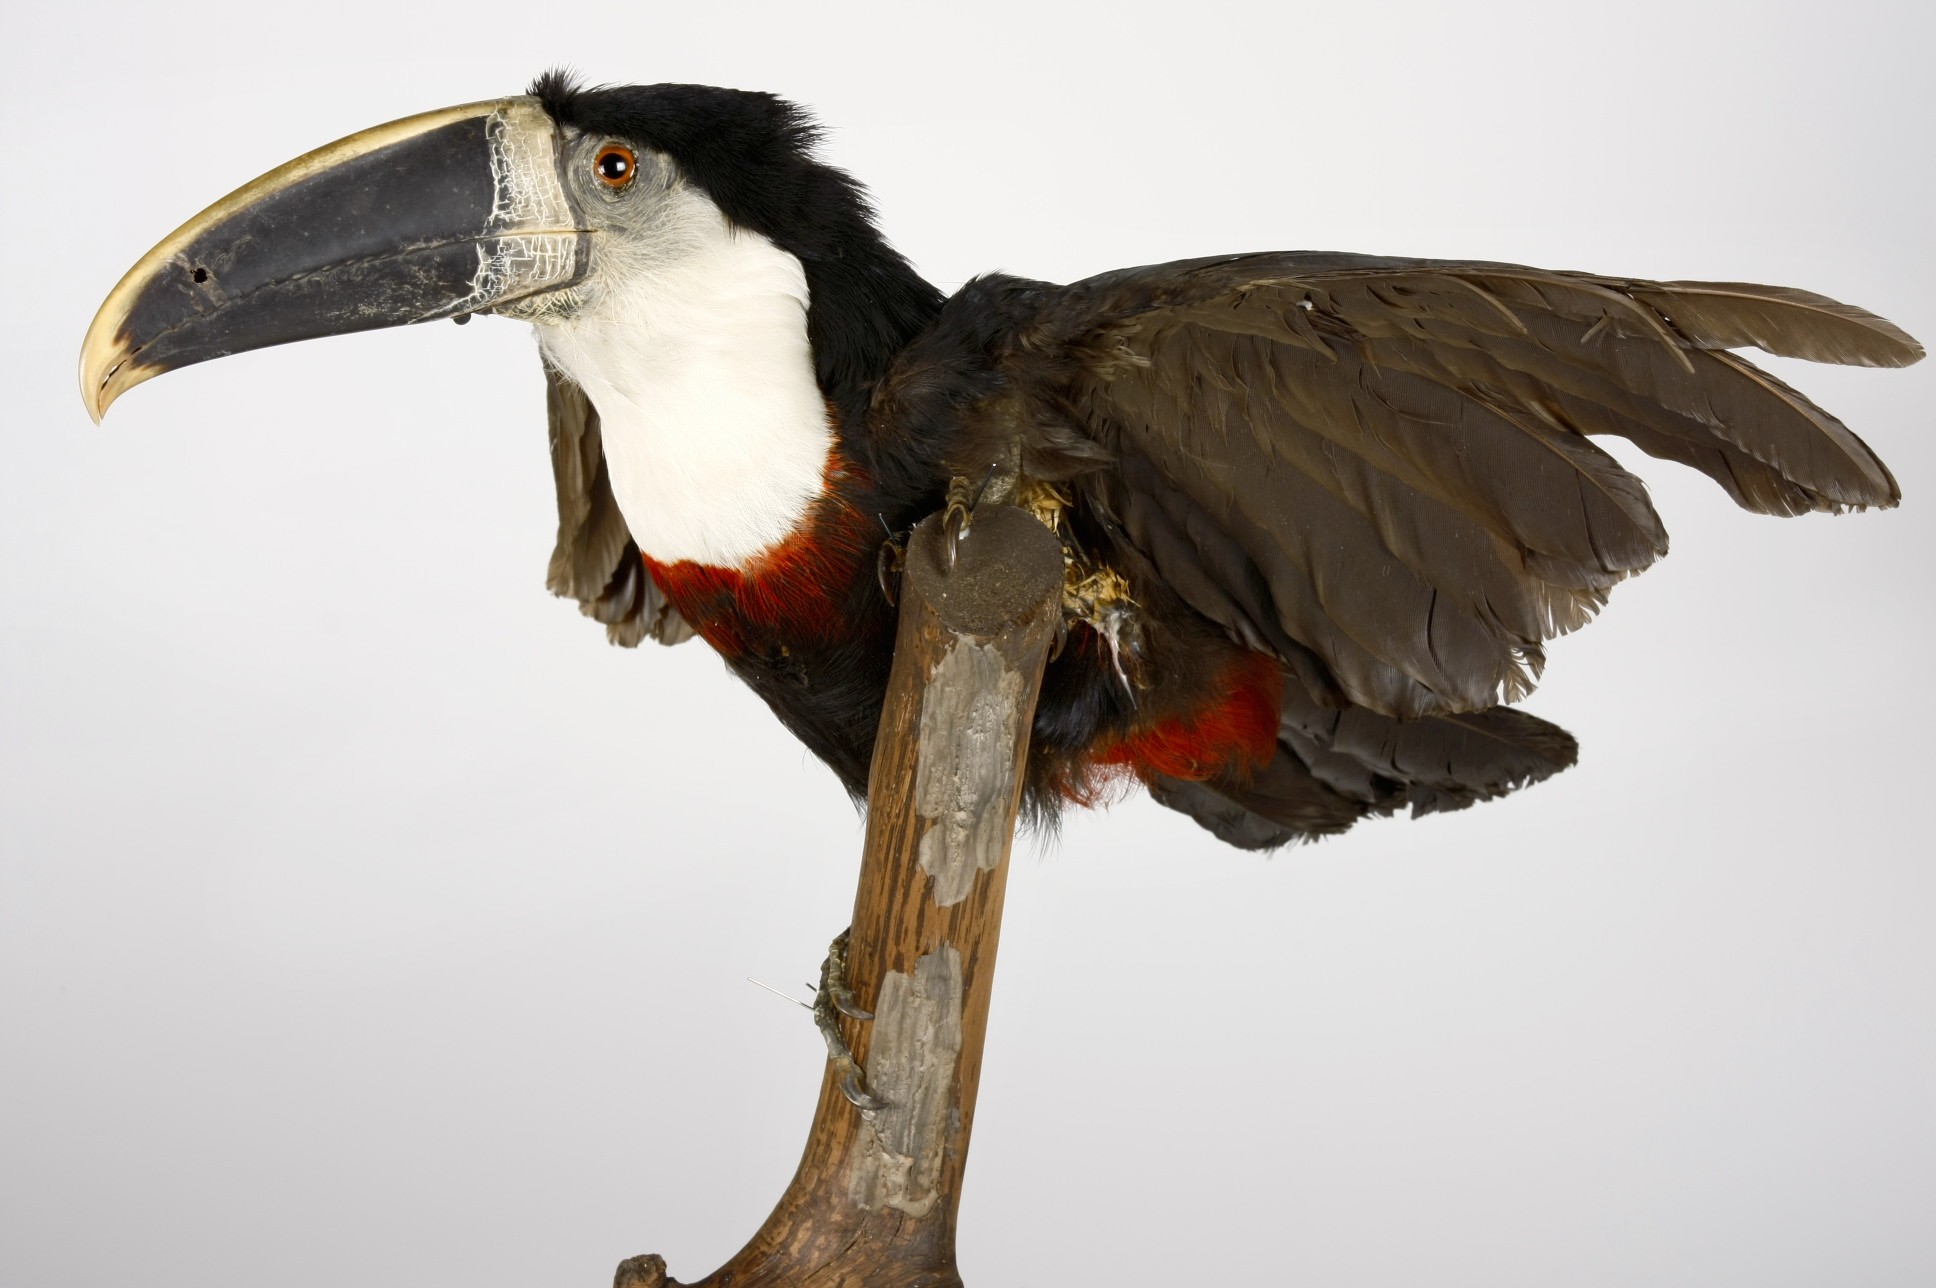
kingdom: Animalia
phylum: Chordata
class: Aves
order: Piciformes
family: Ramphastidae
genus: Ramphastos
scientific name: Ramphastos vitellinus
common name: Channel-billed toucan
